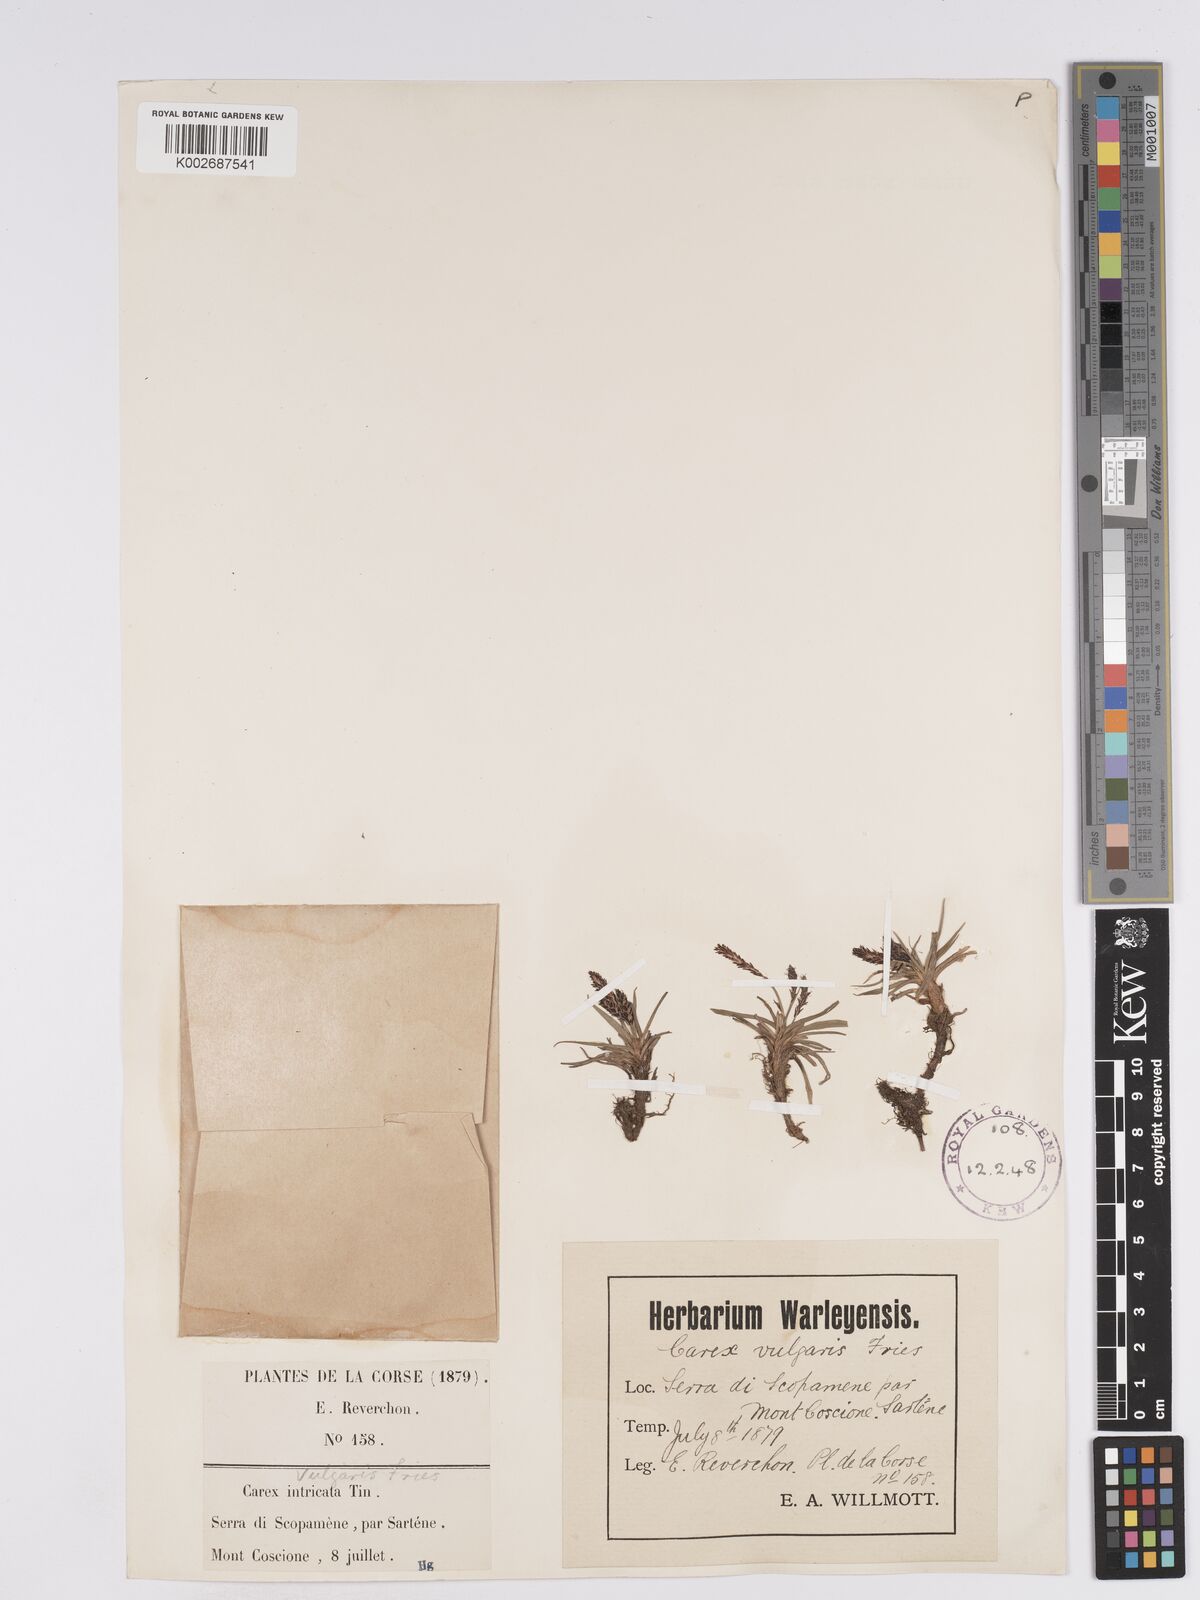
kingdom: Plantae
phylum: Tracheophyta
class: Liliopsida
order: Poales
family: Cyperaceae
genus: Carex
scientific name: Carex nigra
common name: Common sedge
